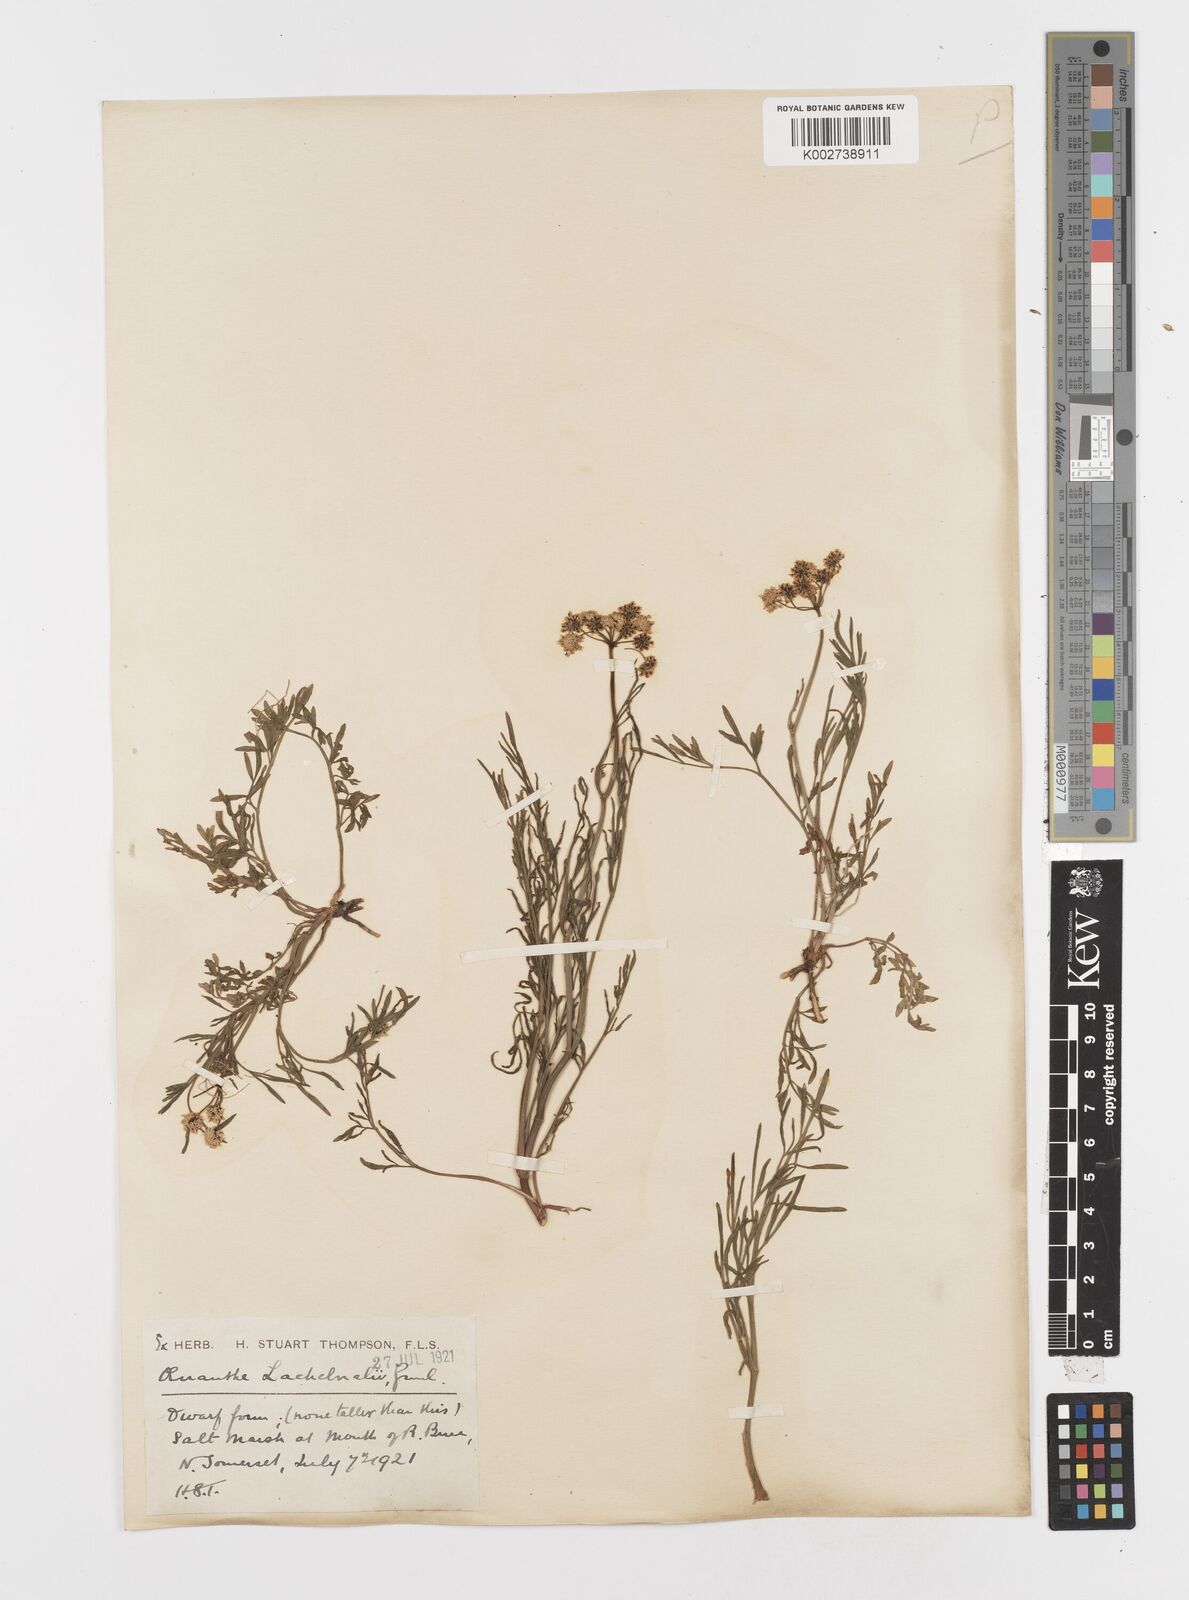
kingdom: Plantae
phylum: Tracheophyta
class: Magnoliopsida
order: Apiales
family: Apiaceae
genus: Oenanthe
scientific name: Oenanthe lachenalii
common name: Parsley water-dropwort
